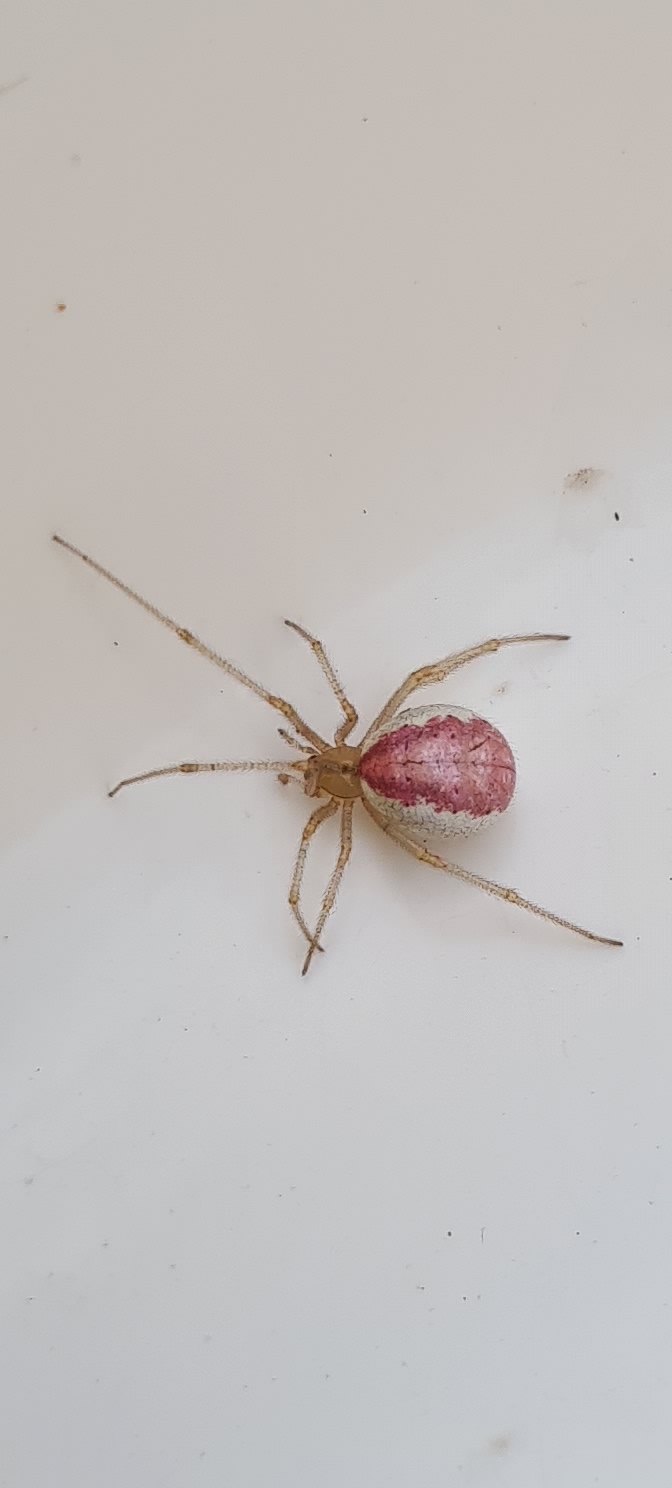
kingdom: Animalia
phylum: Arthropoda
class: Arachnida
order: Araneae
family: Theridiidae
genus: Enoplognatha
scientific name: Enoplognatha ovata
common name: Perleedderkop
